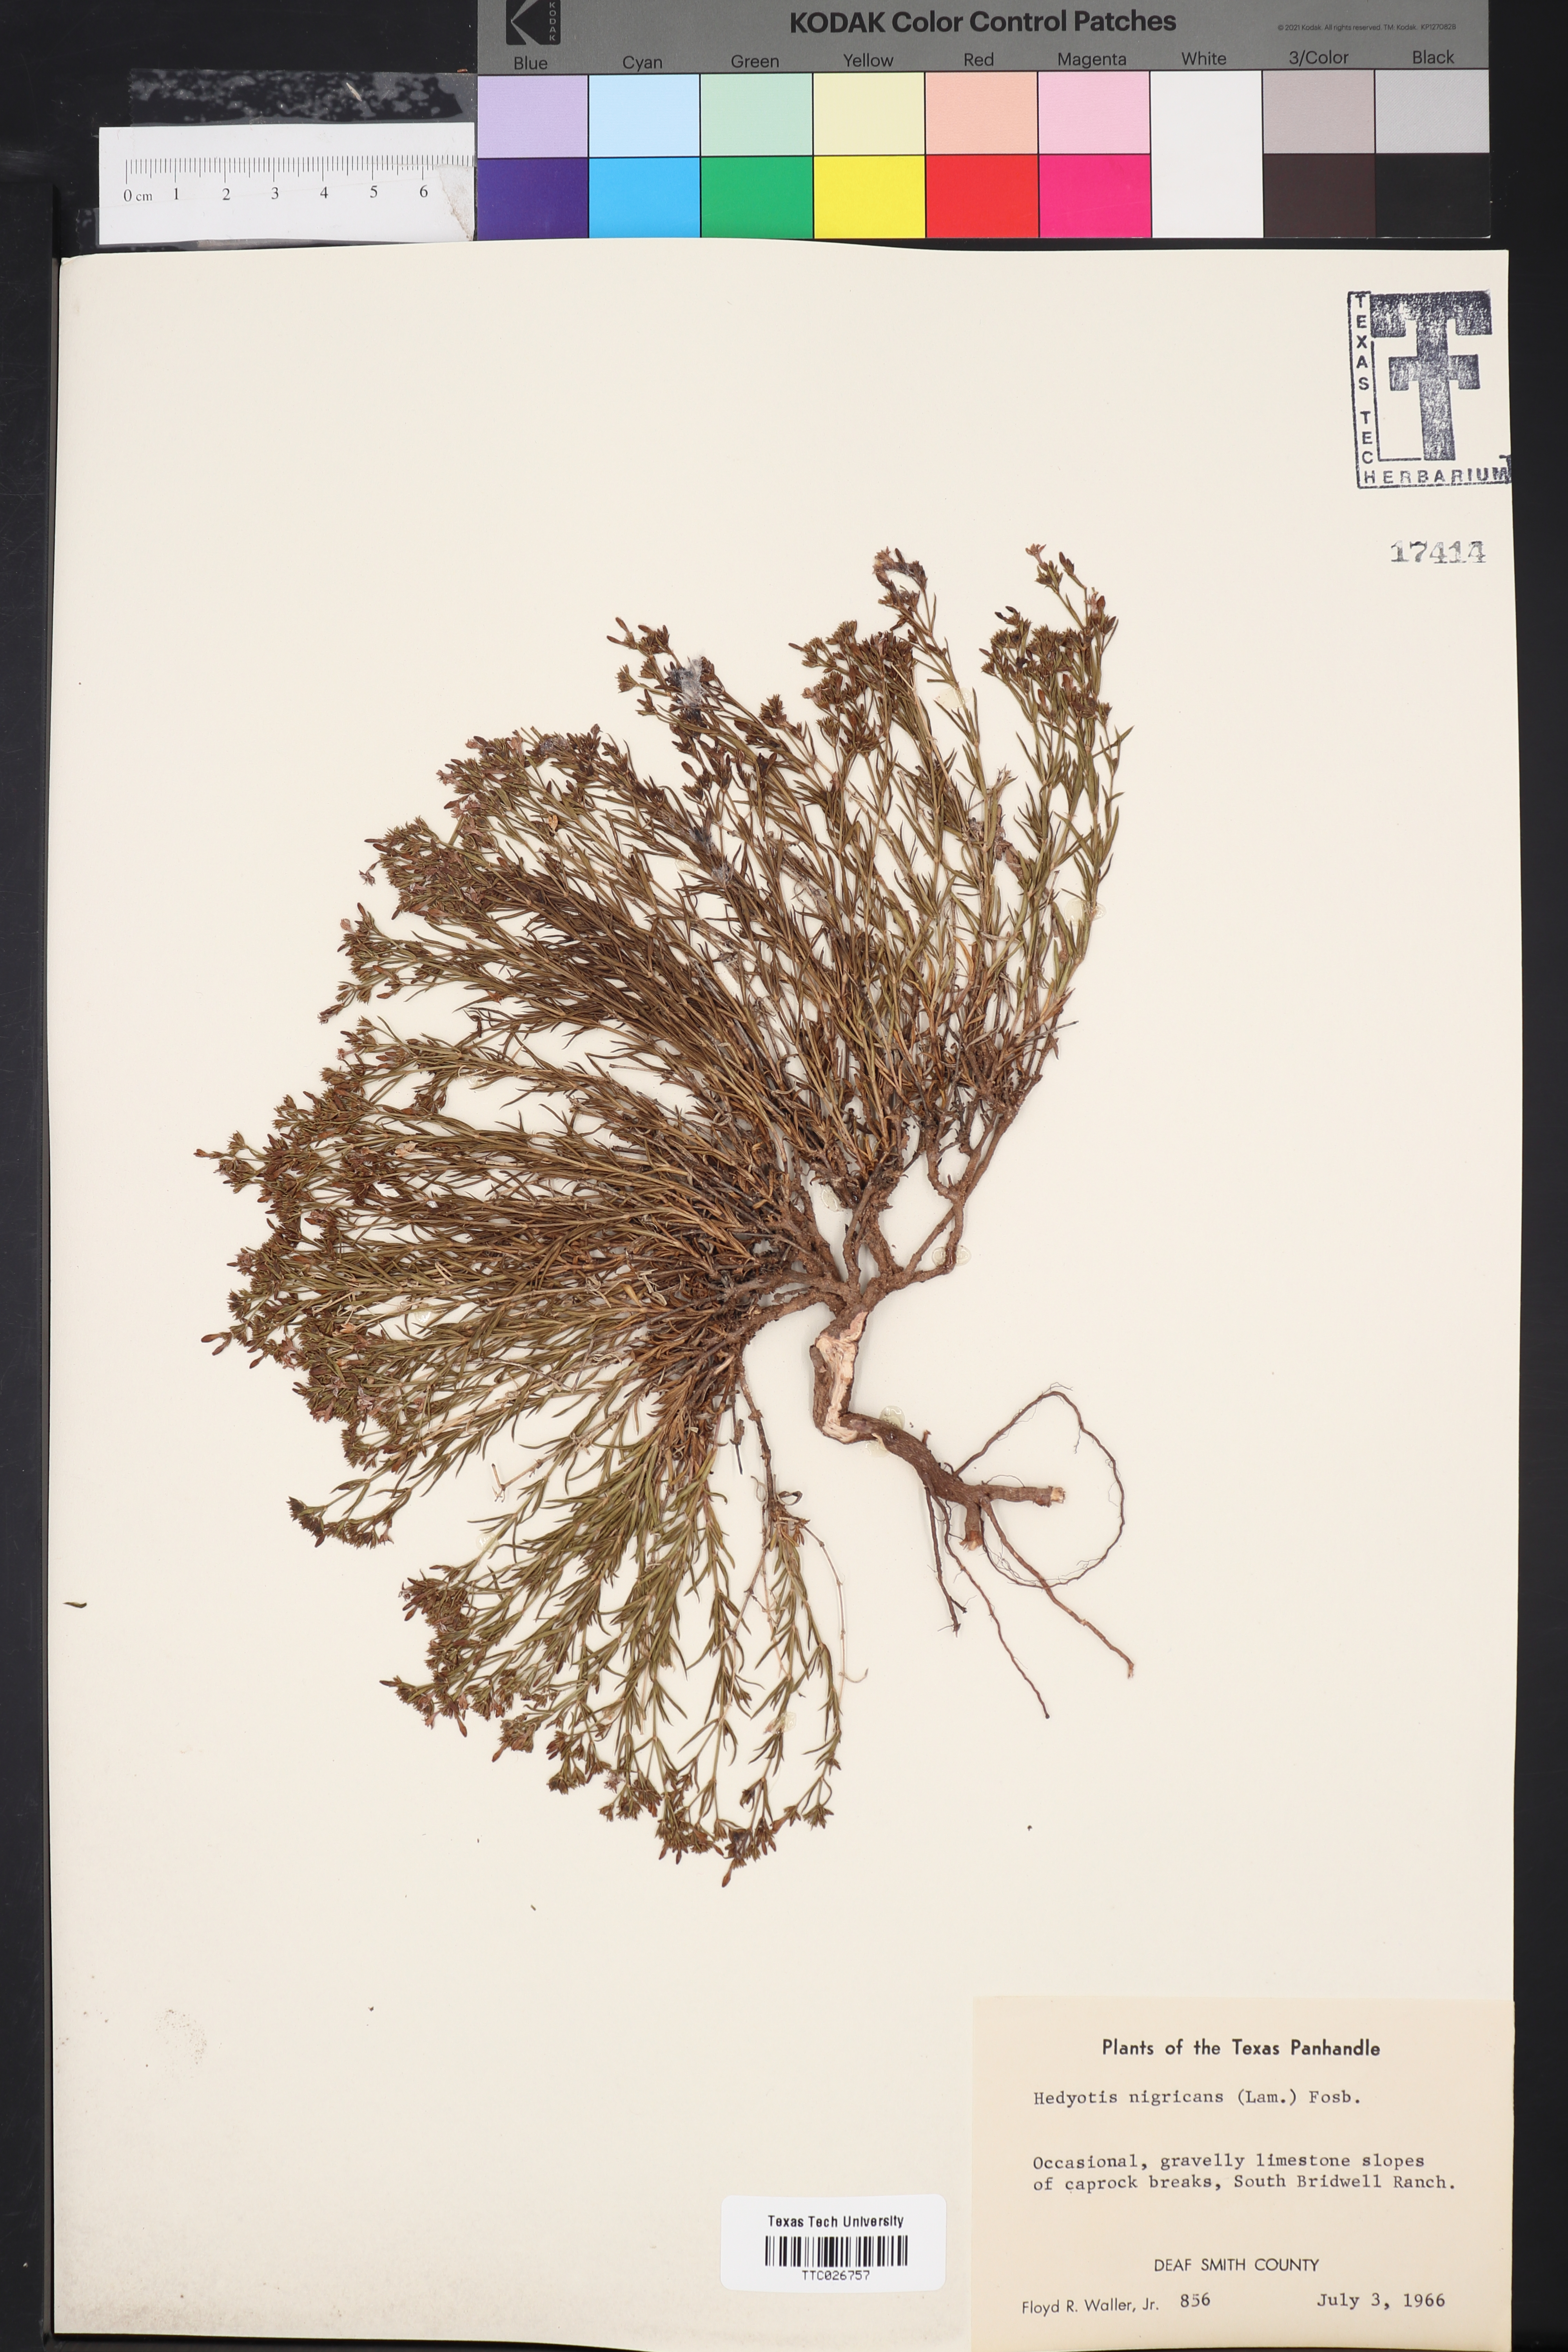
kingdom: Plantae
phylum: Tracheophyta
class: Magnoliopsida
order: Gentianales
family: Rubiaceae
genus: Stenaria
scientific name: Stenaria nigricans
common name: Diamondflowers
